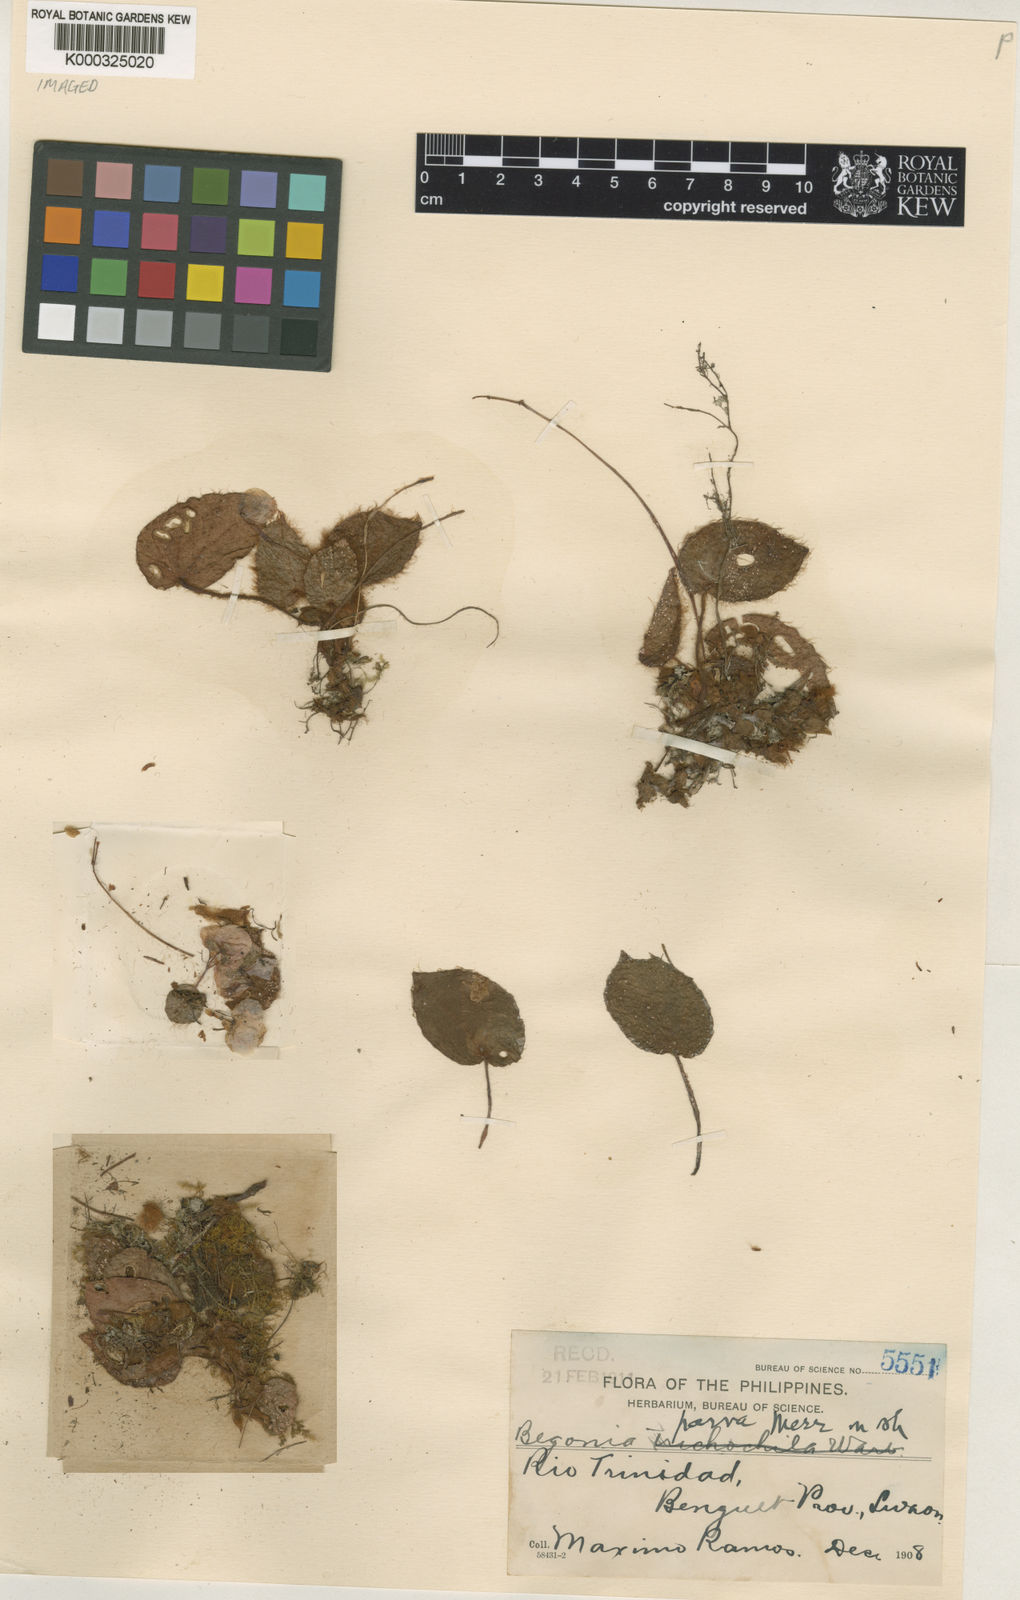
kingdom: Plantae
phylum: Tracheophyta
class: Magnoliopsida
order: Cucurbitales
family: Begoniaceae
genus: Begonia
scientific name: Begonia parva
